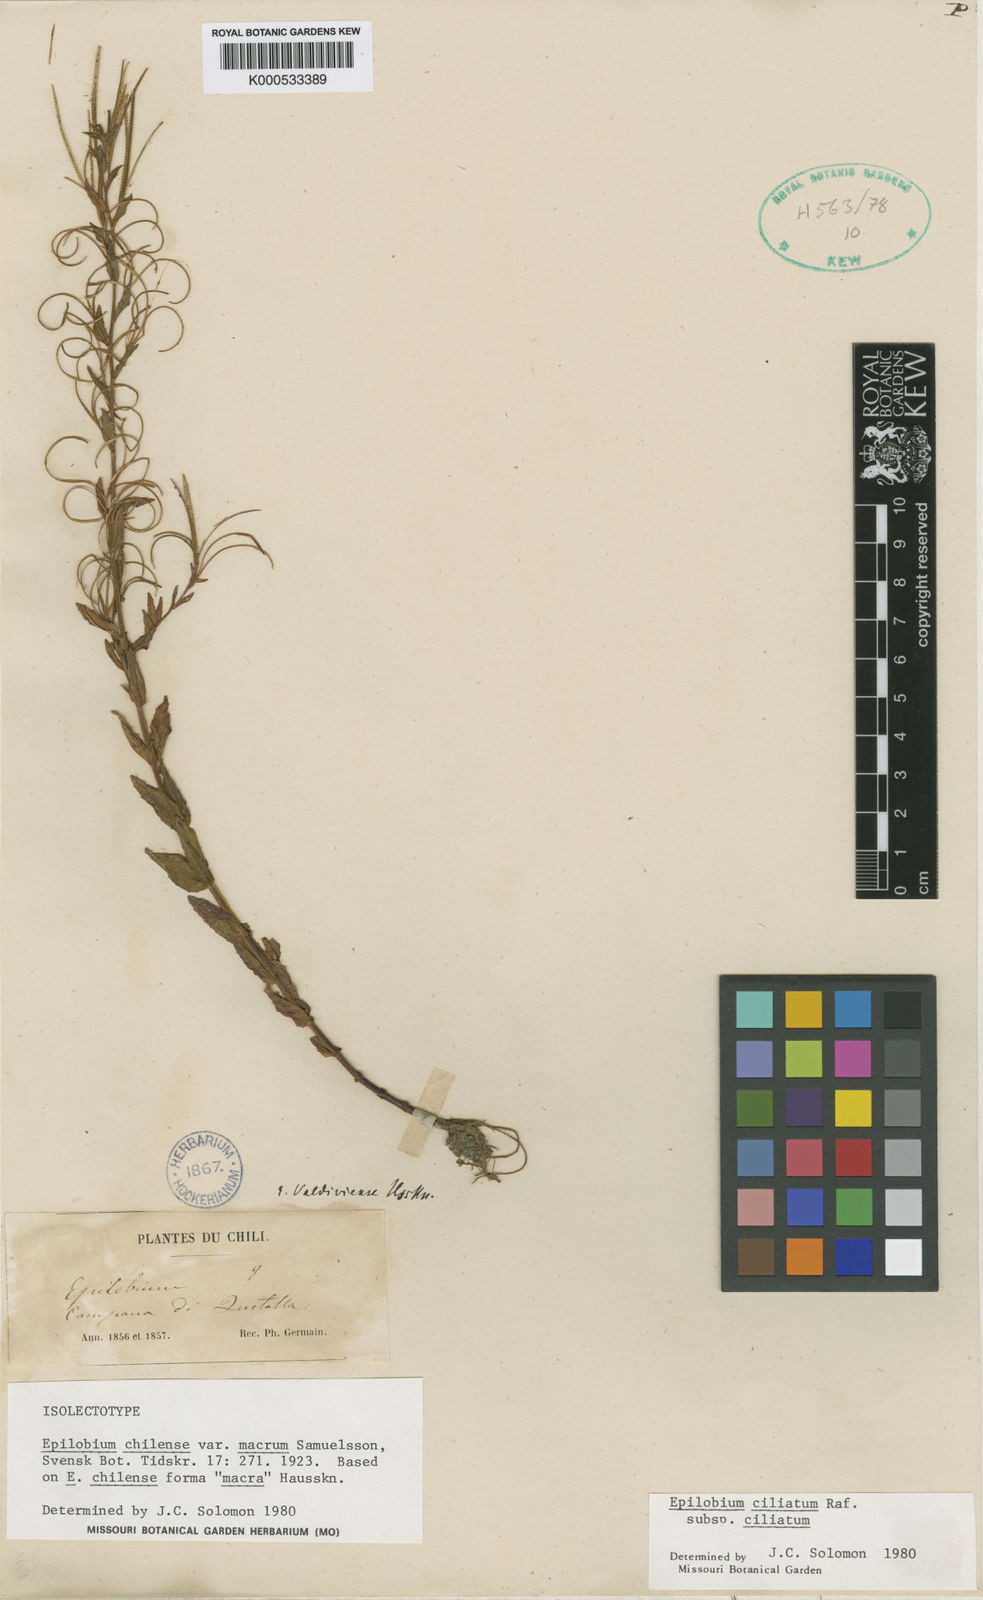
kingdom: Plantae
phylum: Tracheophyta
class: Magnoliopsida
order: Myrtales
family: Onagraceae
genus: Epilobium
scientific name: Epilobium ciliatum
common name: American willowherb
